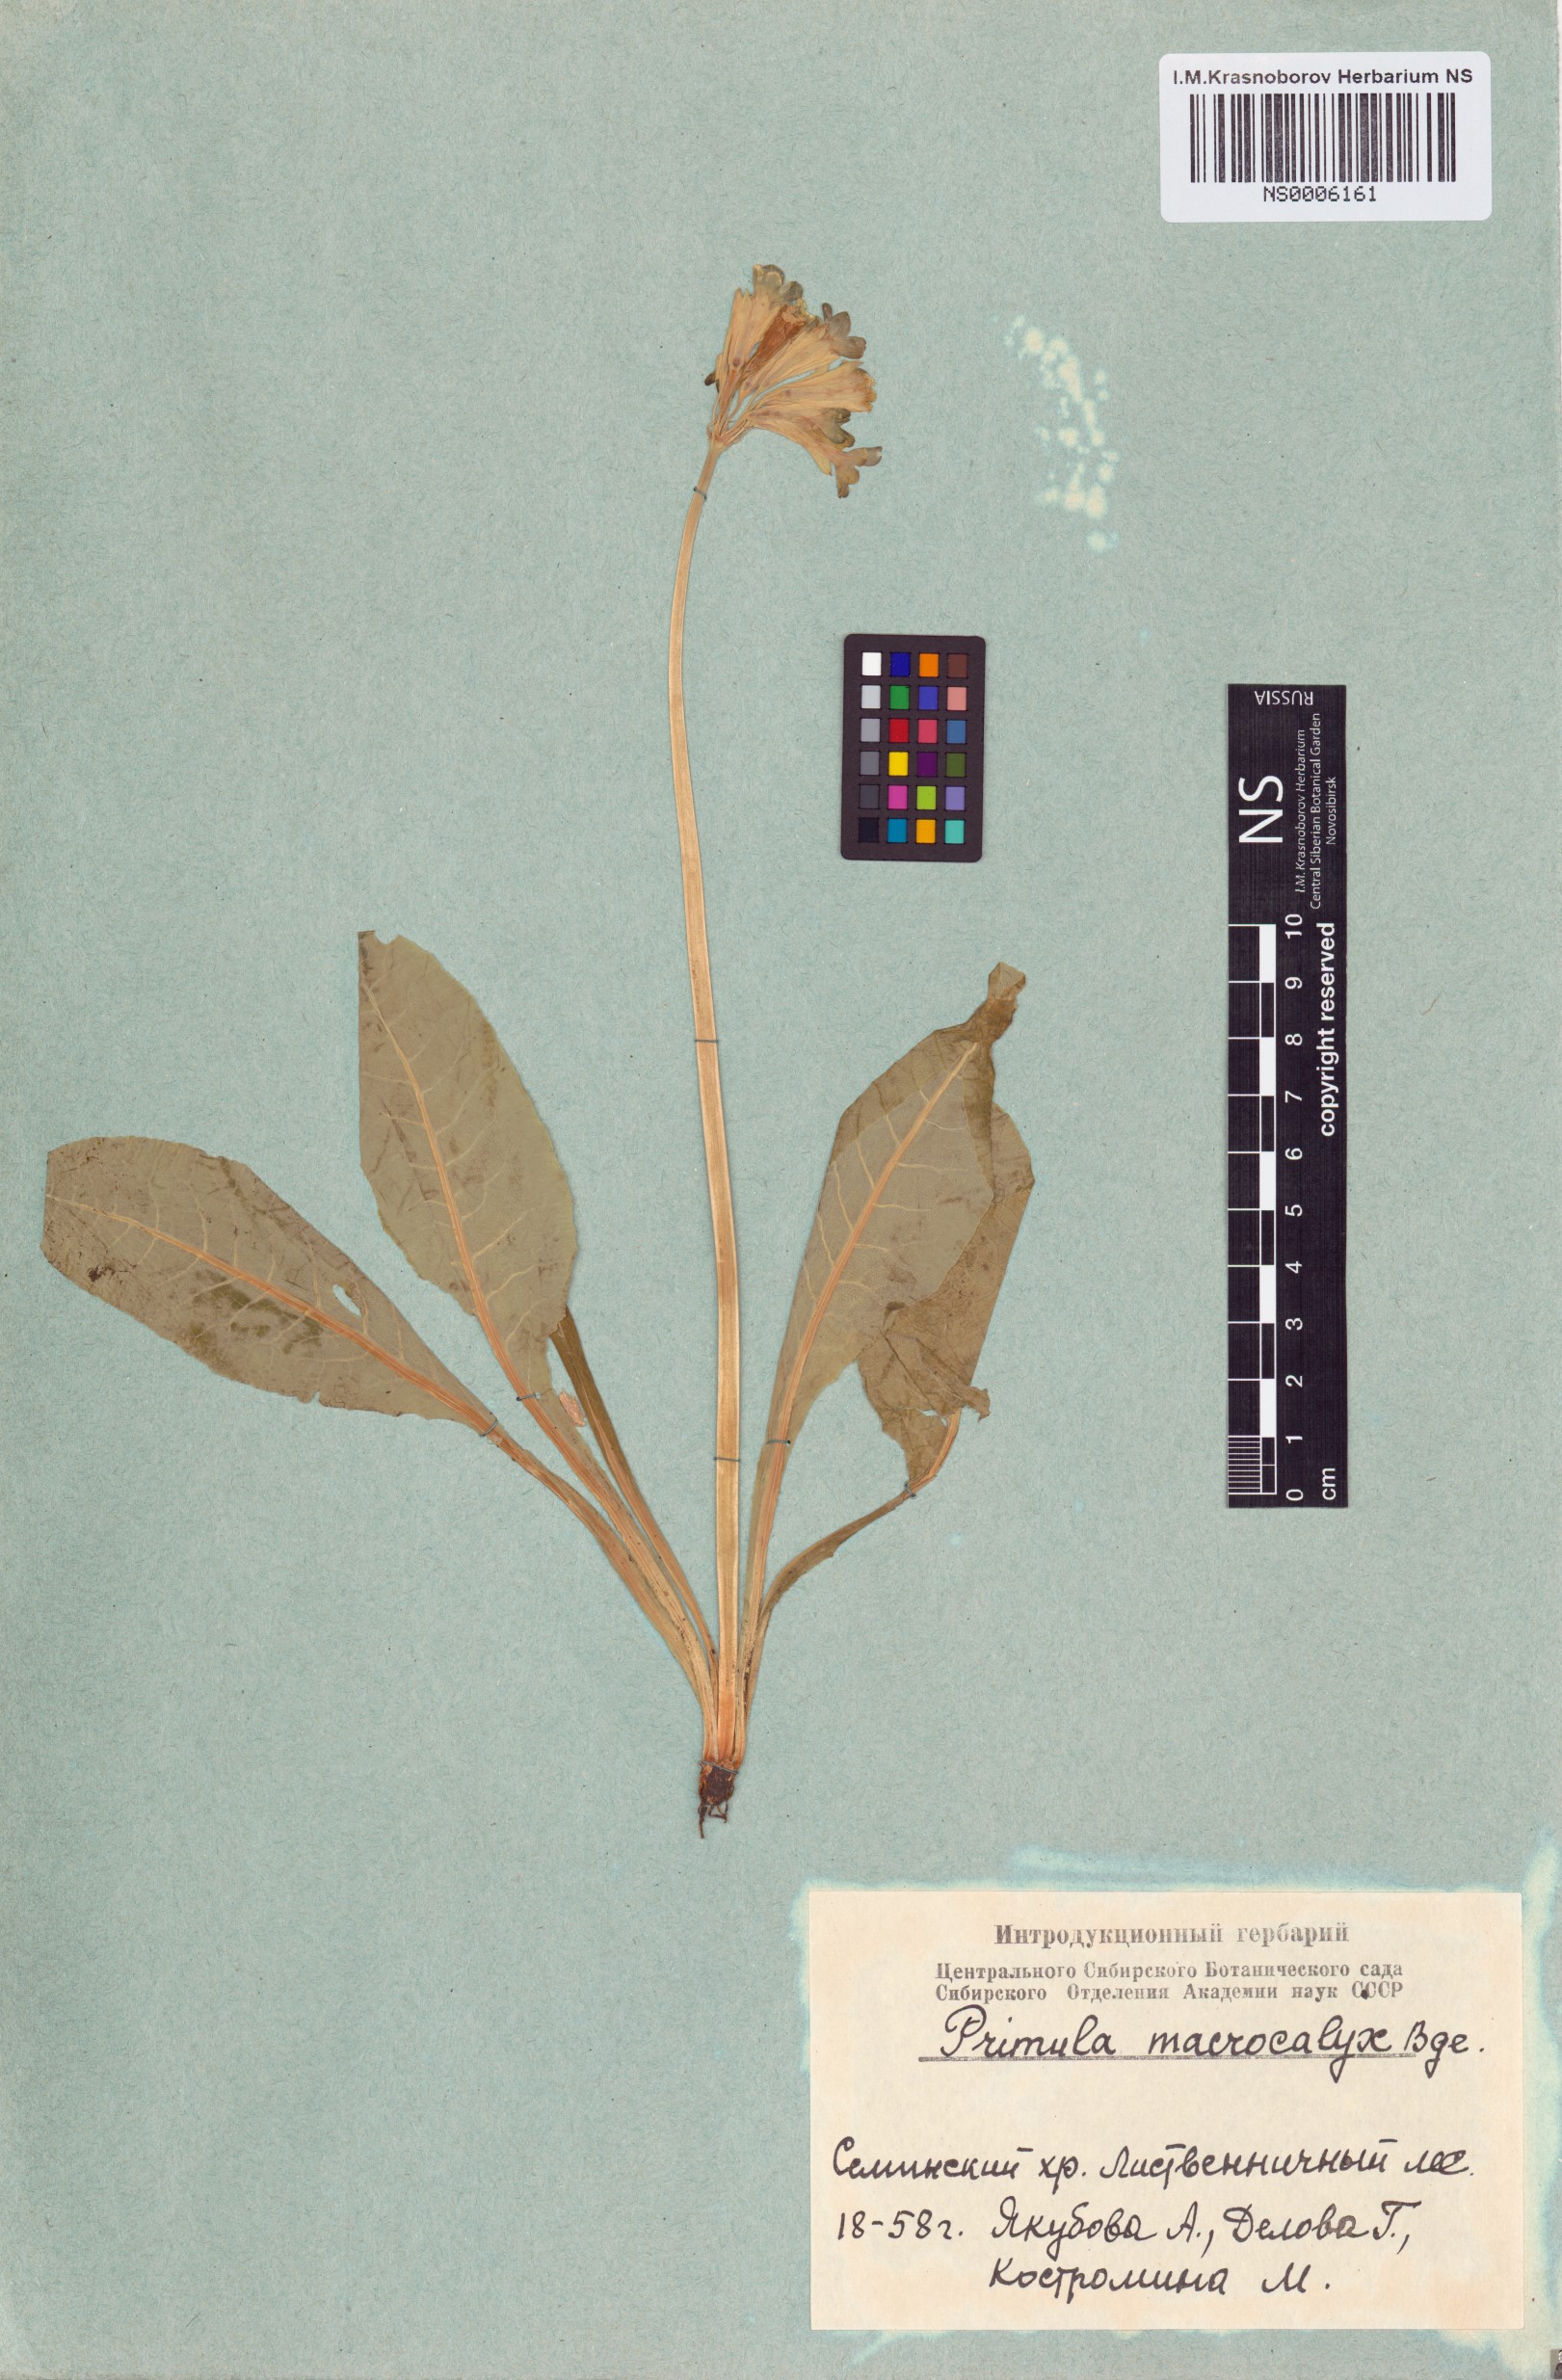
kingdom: Plantae
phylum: Tracheophyta
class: Magnoliopsida
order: Ericales
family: Primulaceae
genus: Primula
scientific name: Primula veris
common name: Cowslip
